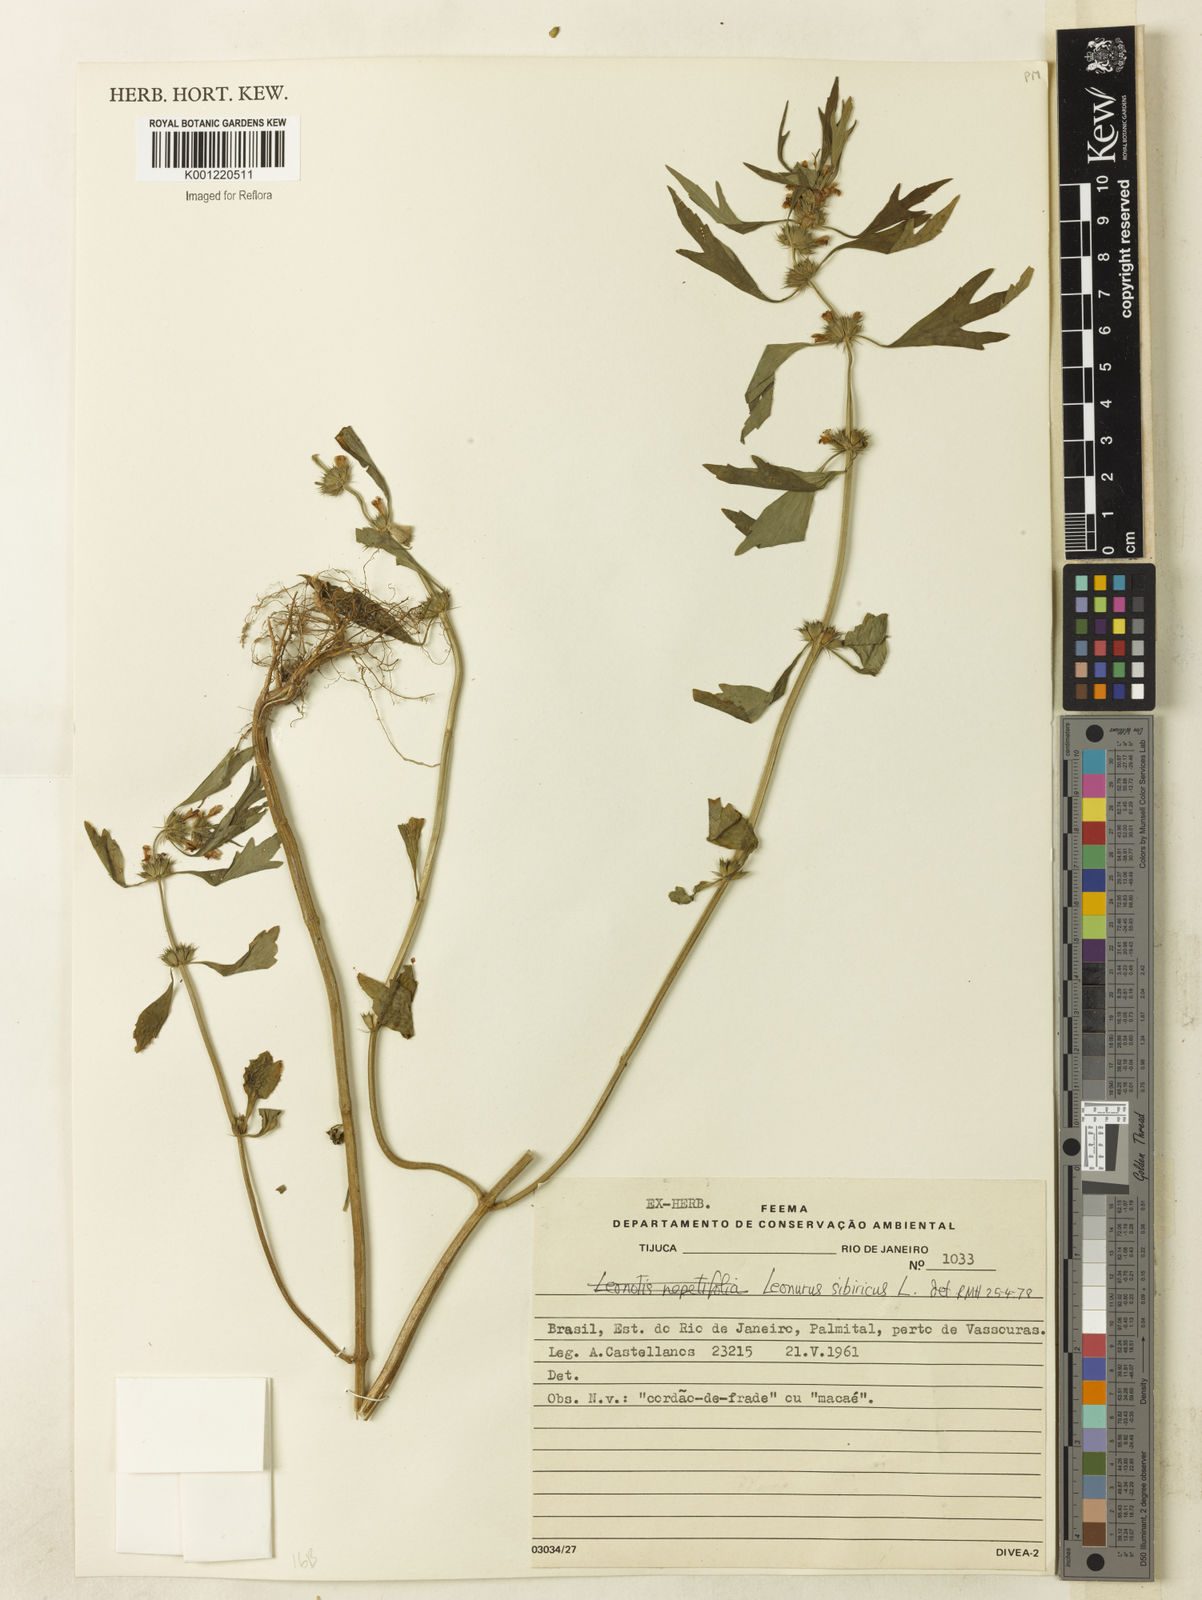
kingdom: Plantae
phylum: Tracheophyta
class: Magnoliopsida
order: Lamiales
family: Lamiaceae
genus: Leonurus
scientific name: Leonurus japonicus
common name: Honeyweed
